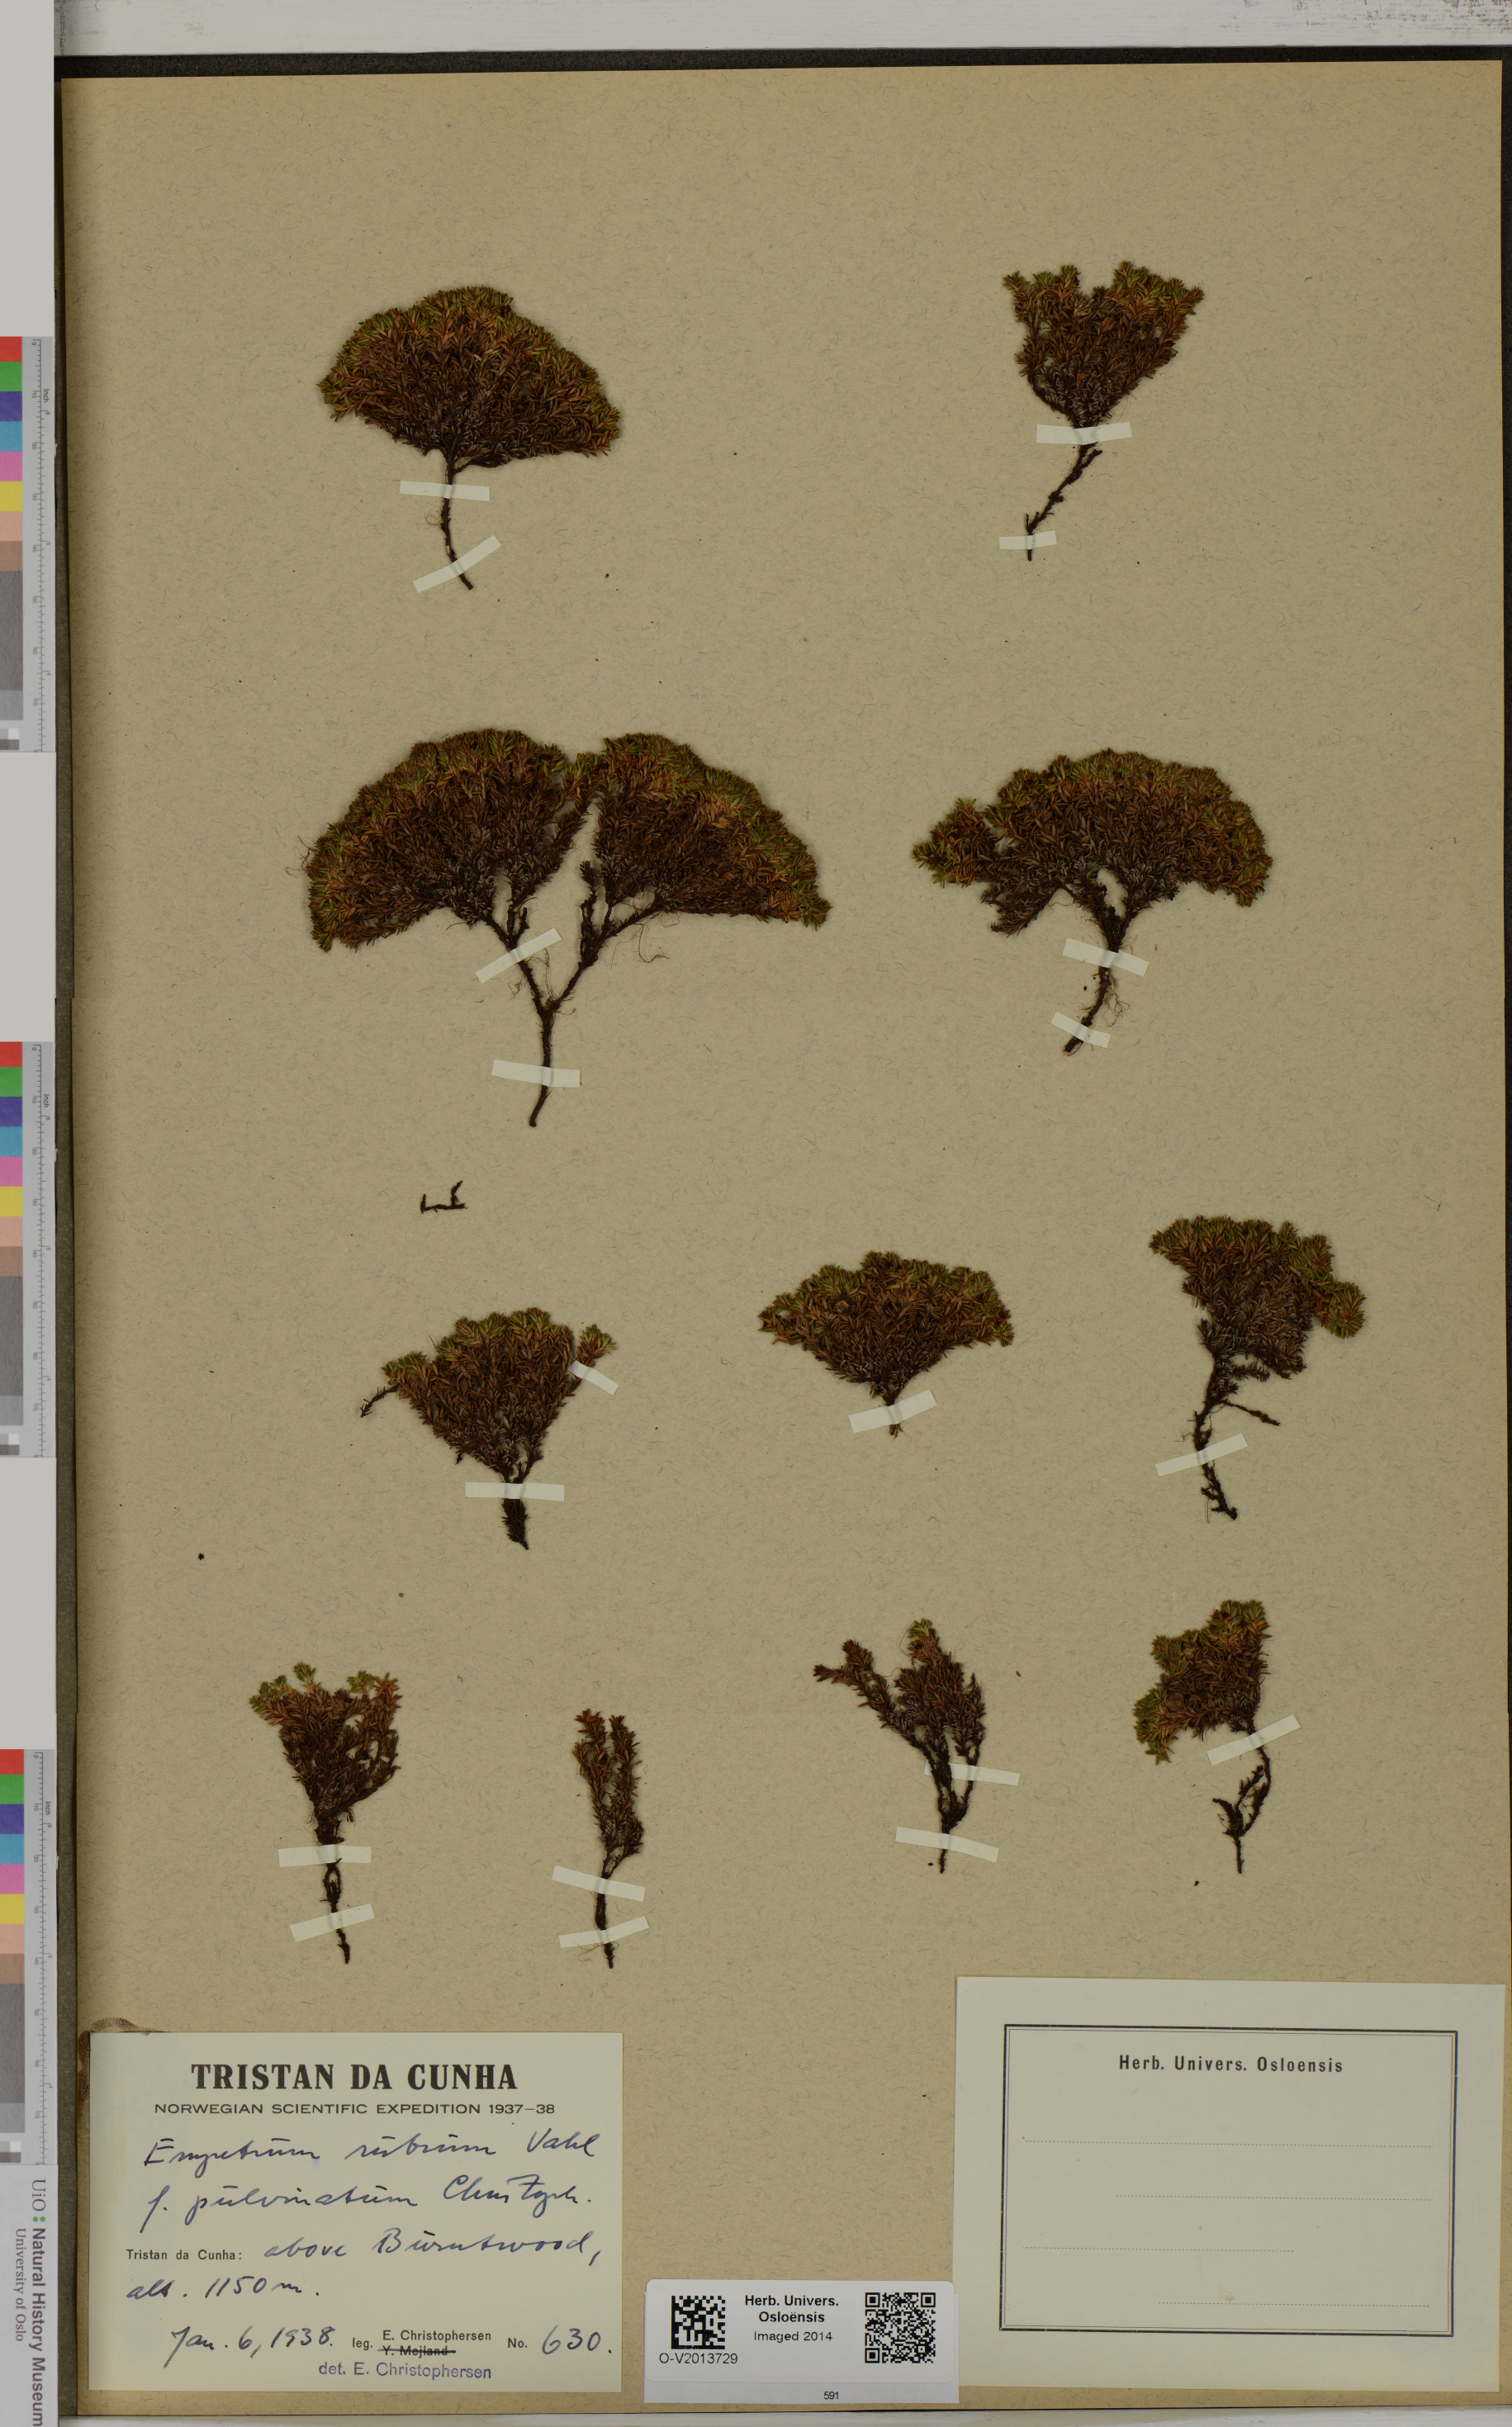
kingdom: Plantae
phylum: Tracheophyta
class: Magnoliopsida
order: Ericales
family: Ericaceae
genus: Empetrum
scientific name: Empetrum rubrum
